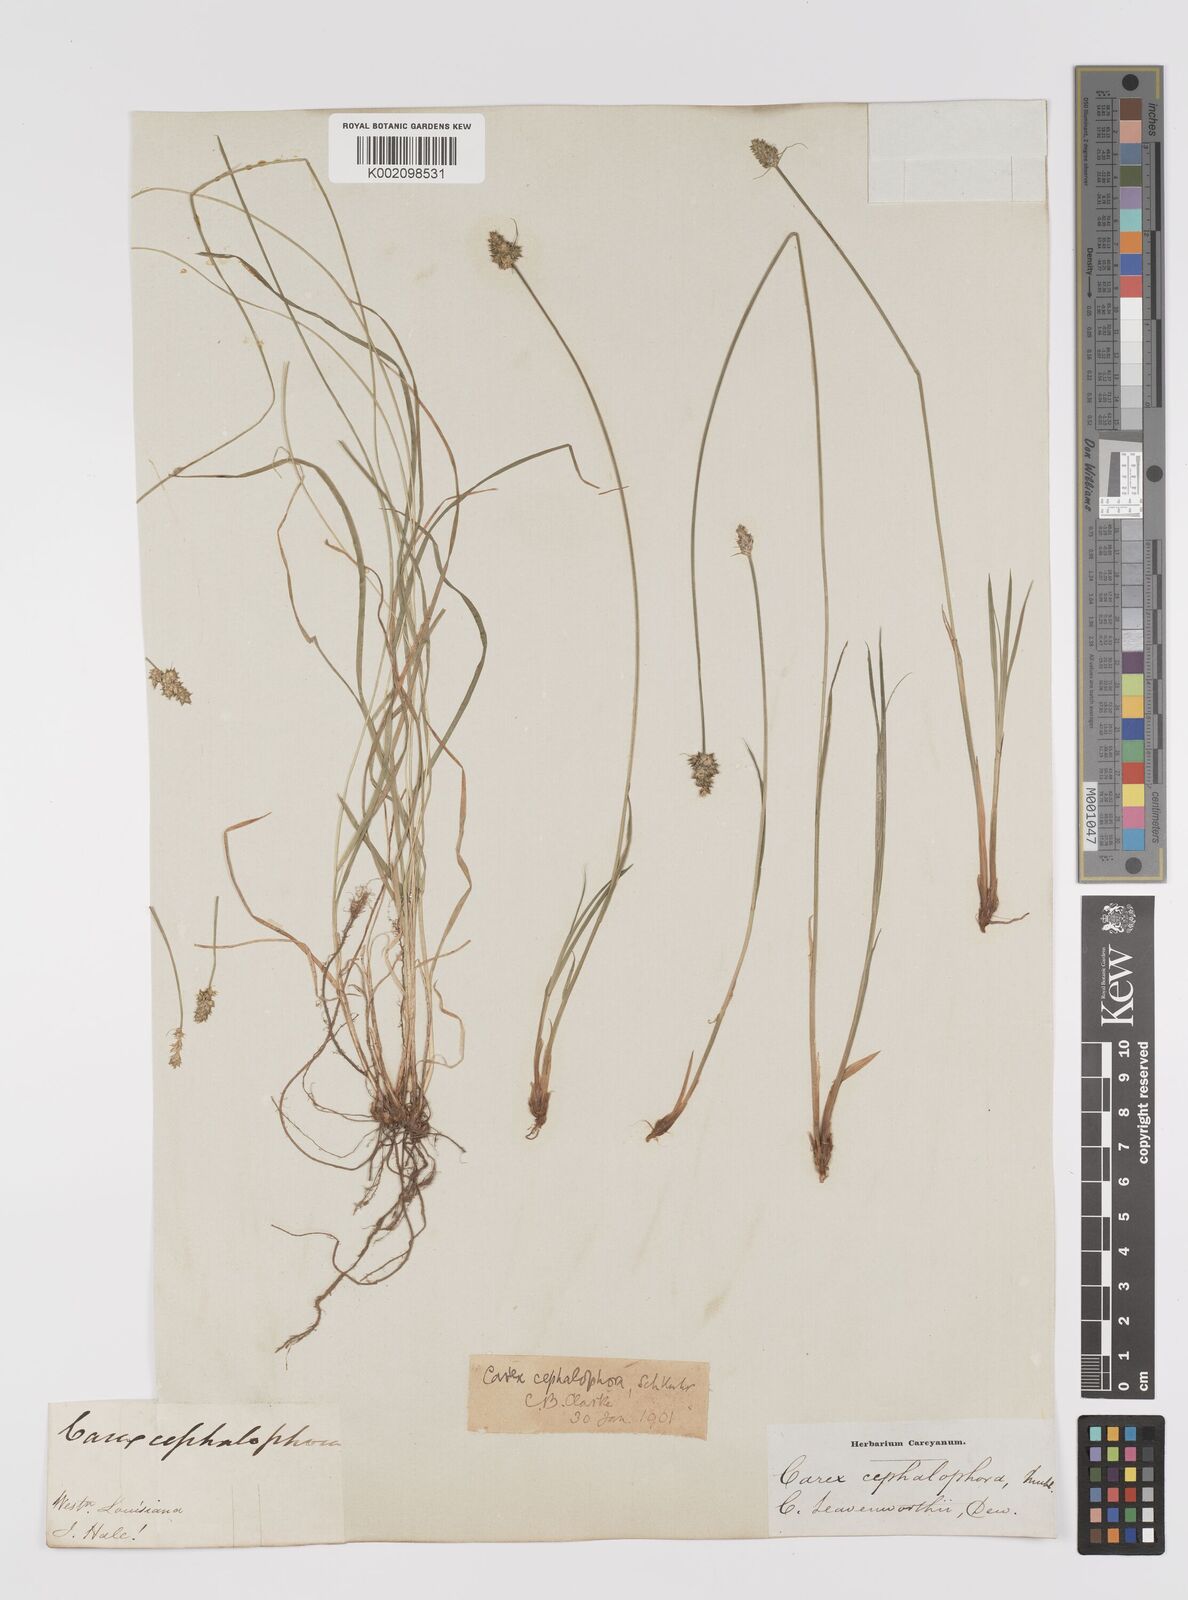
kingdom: Plantae
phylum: Tracheophyta
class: Liliopsida
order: Poales
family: Cyperaceae
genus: Carex
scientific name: Carex cephalophora
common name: Oval-headed sedge
